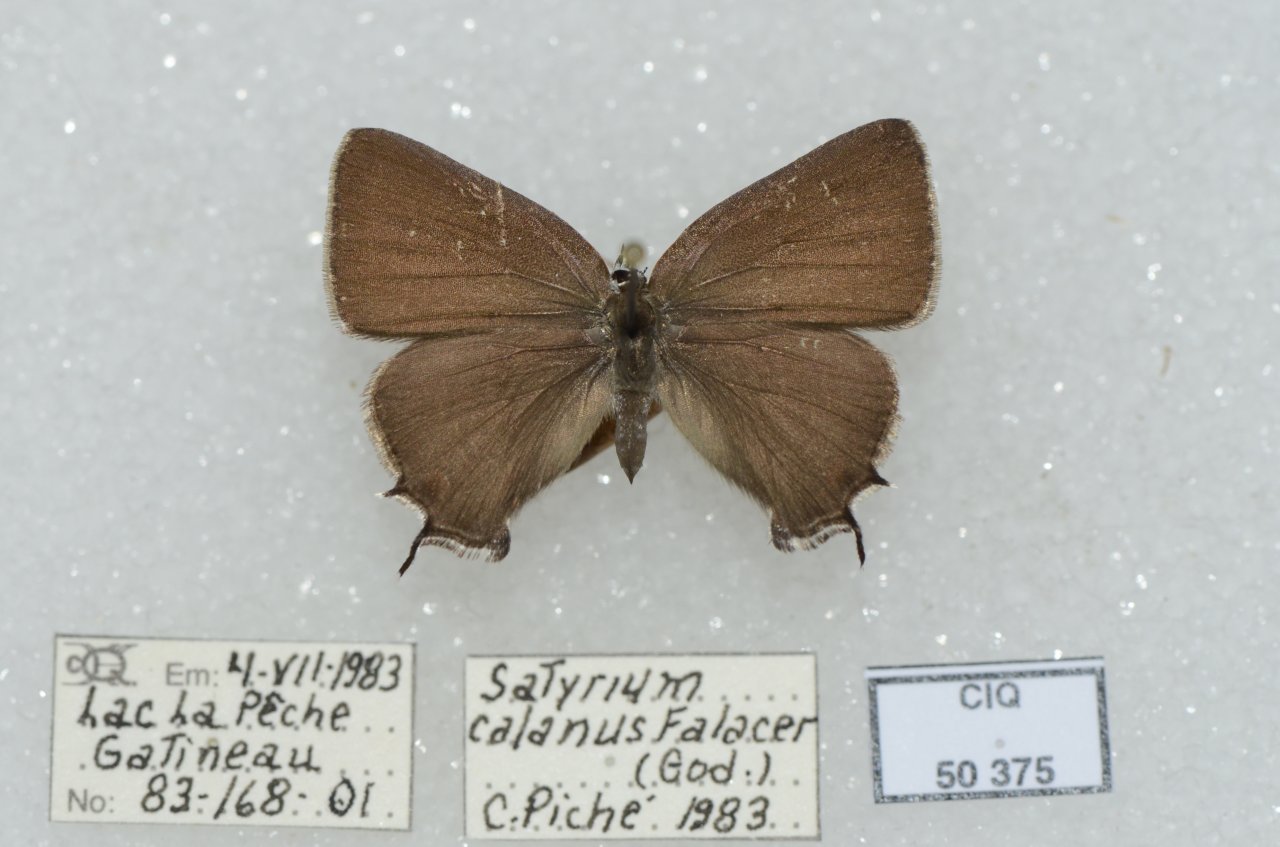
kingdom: Animalia
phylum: Arthropoda
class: Insecta
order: Lepidoptera
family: Lycaenidae
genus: Satyrium
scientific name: Satyrium calanus
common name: Banded Hairstreak
